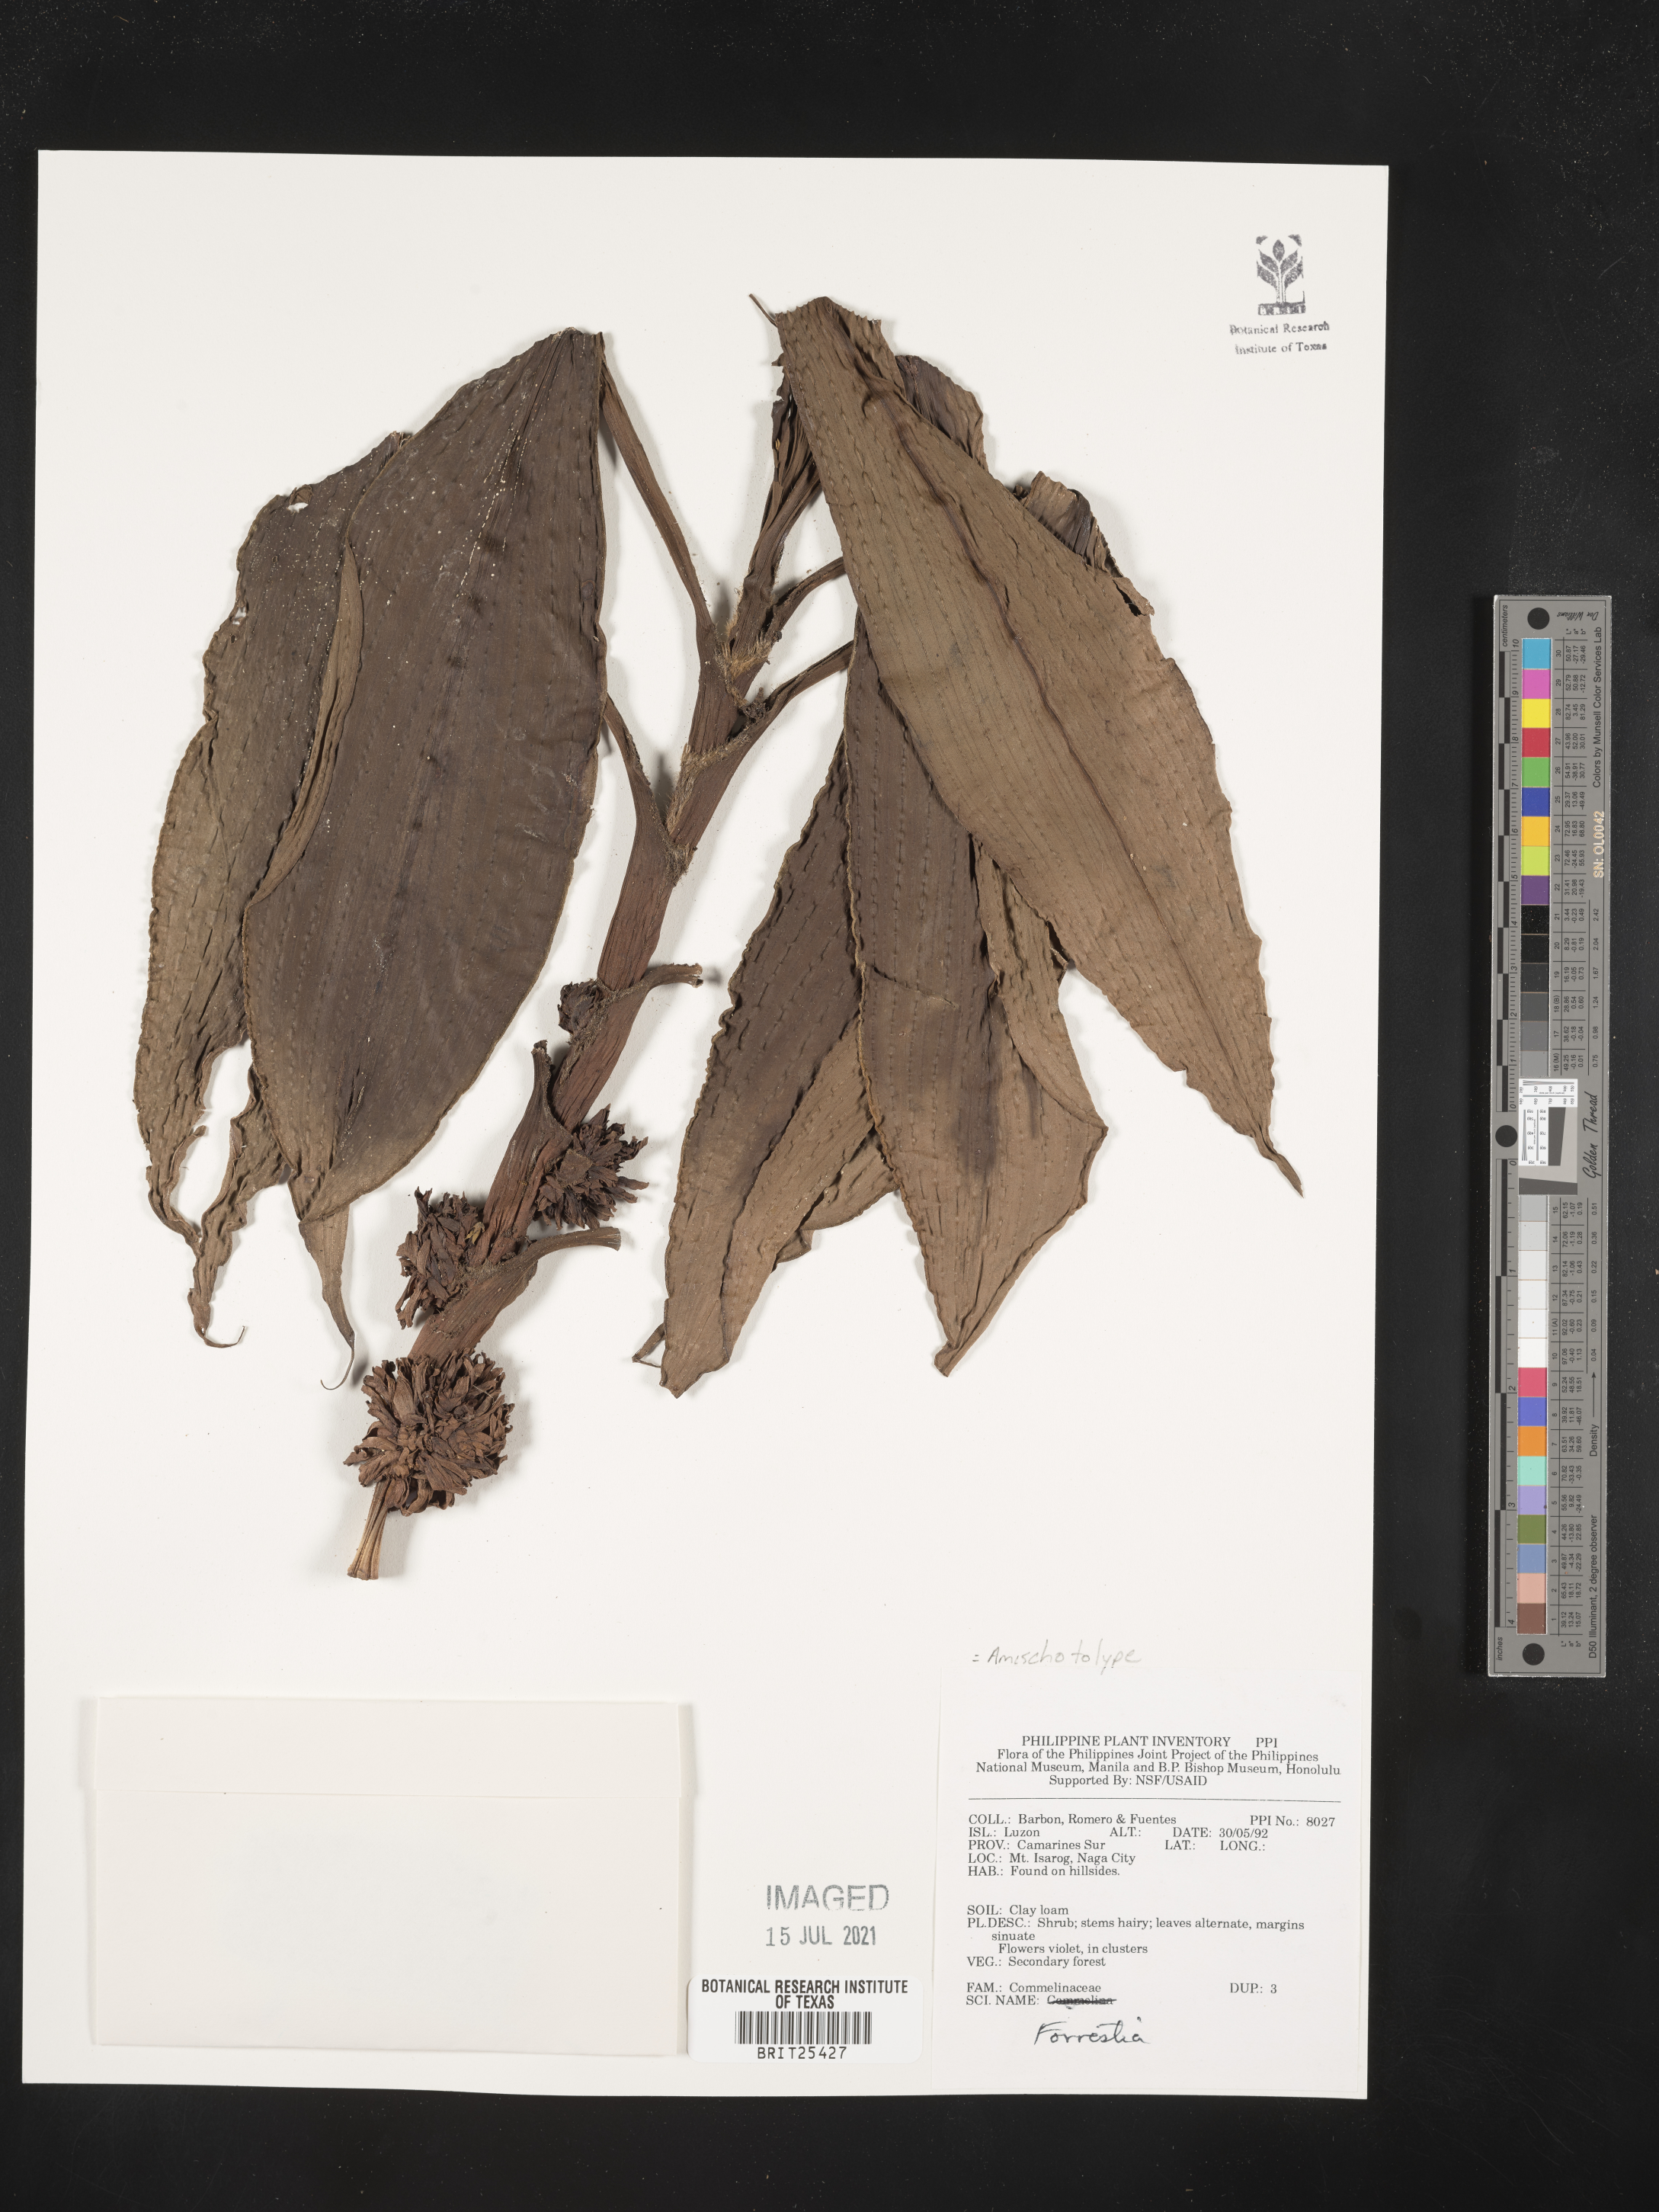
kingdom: Plantae
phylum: Tracheophyta
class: Magnoliopsida
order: Rosales
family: Rhamnaceae
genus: Ceanothus
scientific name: Ceanothus
